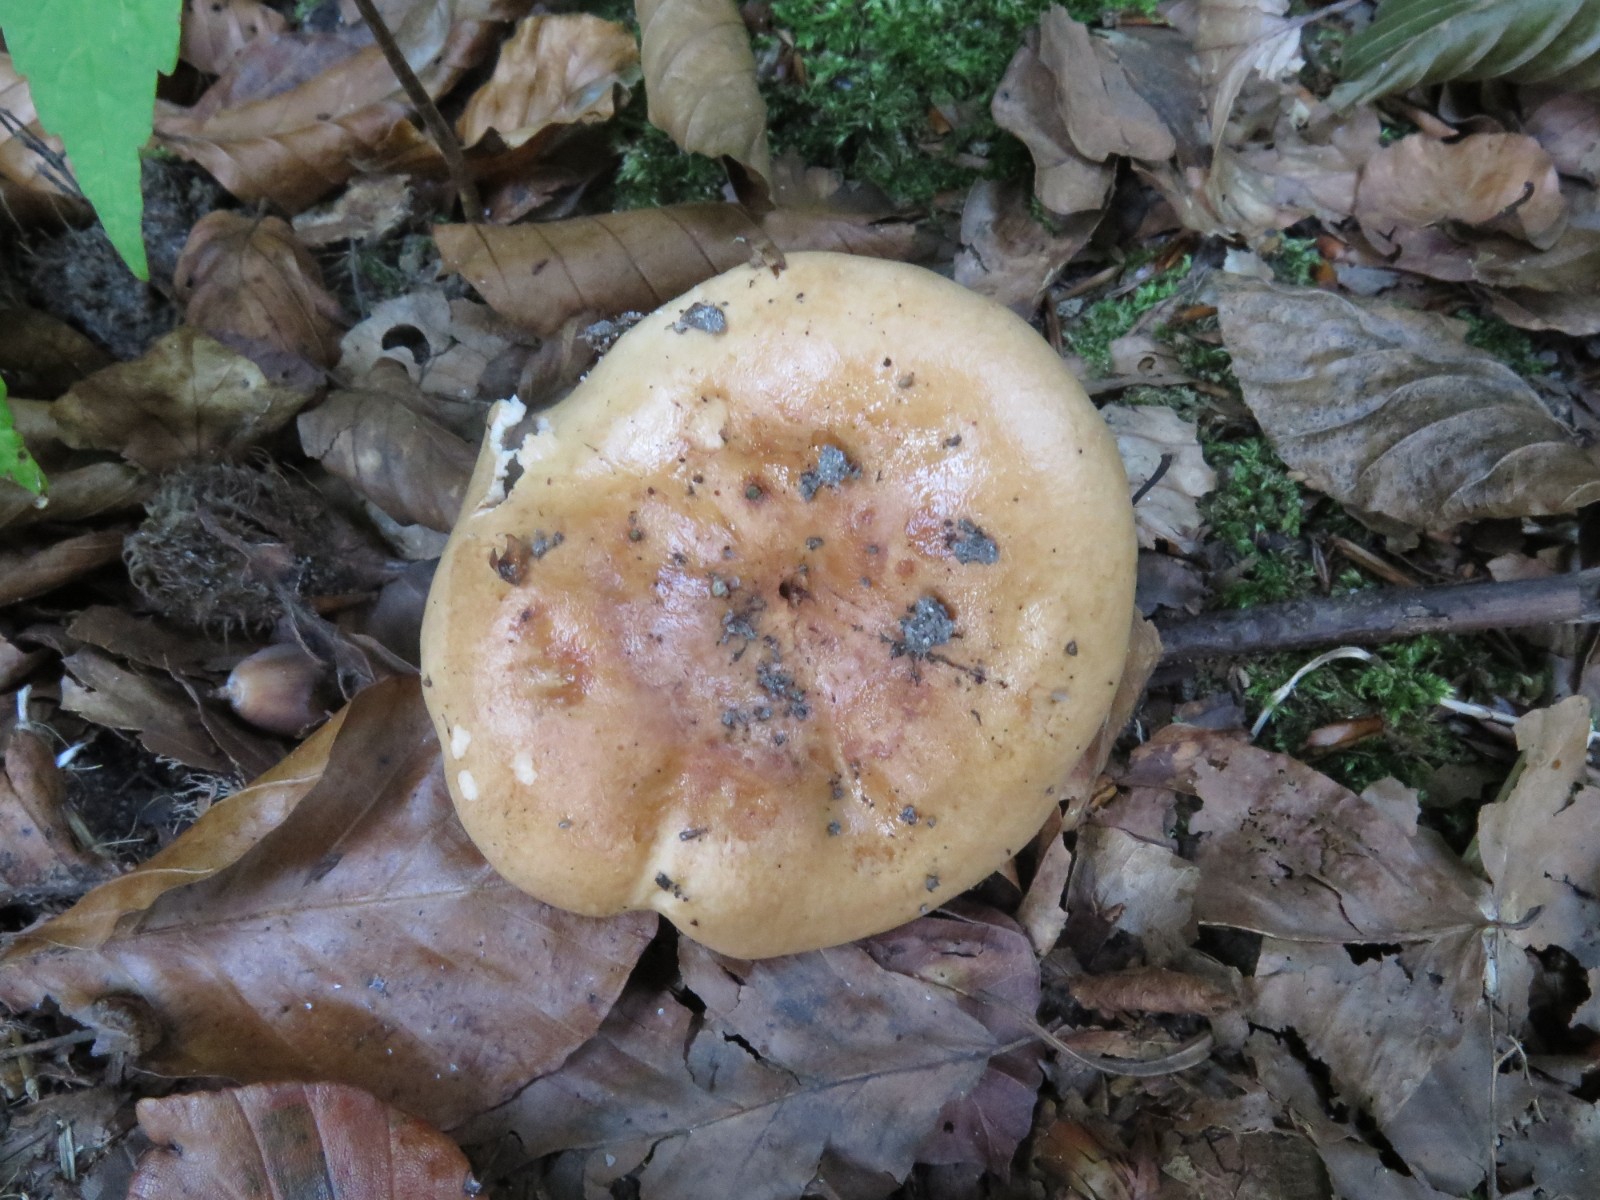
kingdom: Fungi
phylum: Basidiomycota
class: Agaricomycetes
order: Russulales
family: Russulaceae
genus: Lactarius
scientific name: Lactarius pallidus
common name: bleg mælkehat
